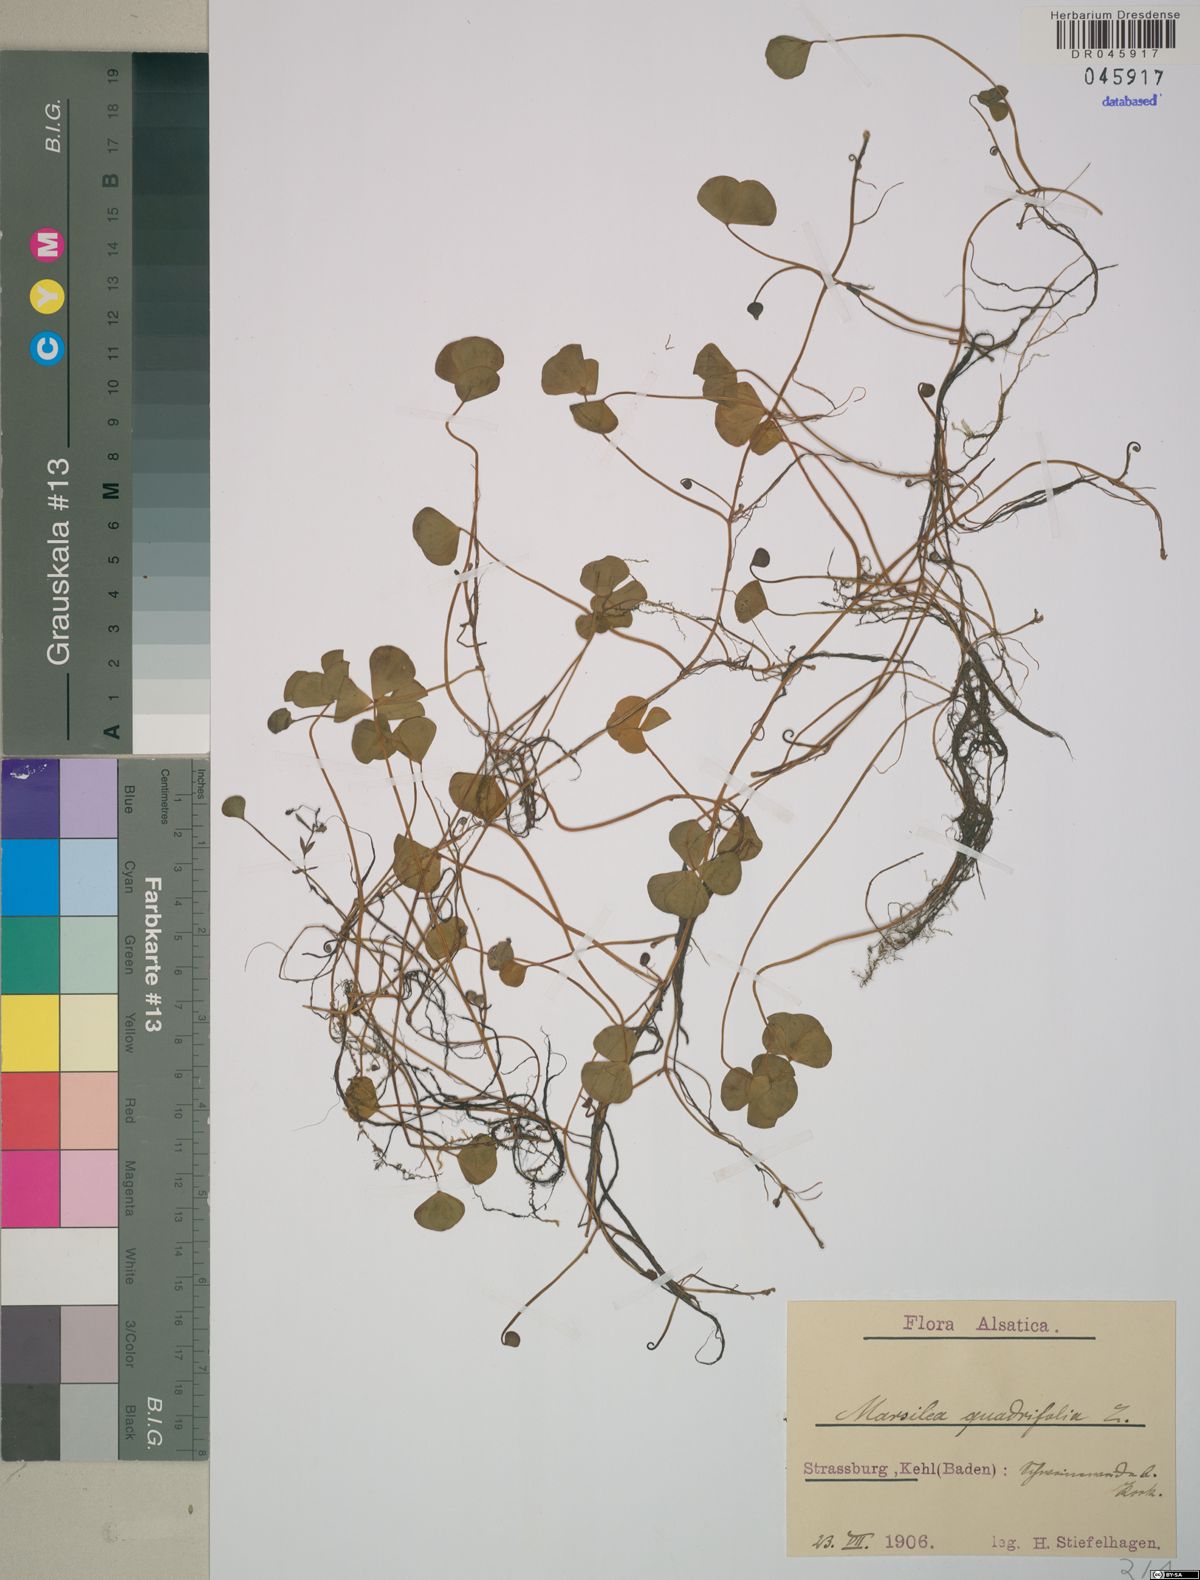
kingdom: Plantae
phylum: Tracheophyta
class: Polypodiopsida
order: Salviniales
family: Marsileaceae
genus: Marsilea
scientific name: Marsilea quadrifolia
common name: Water shamrock
